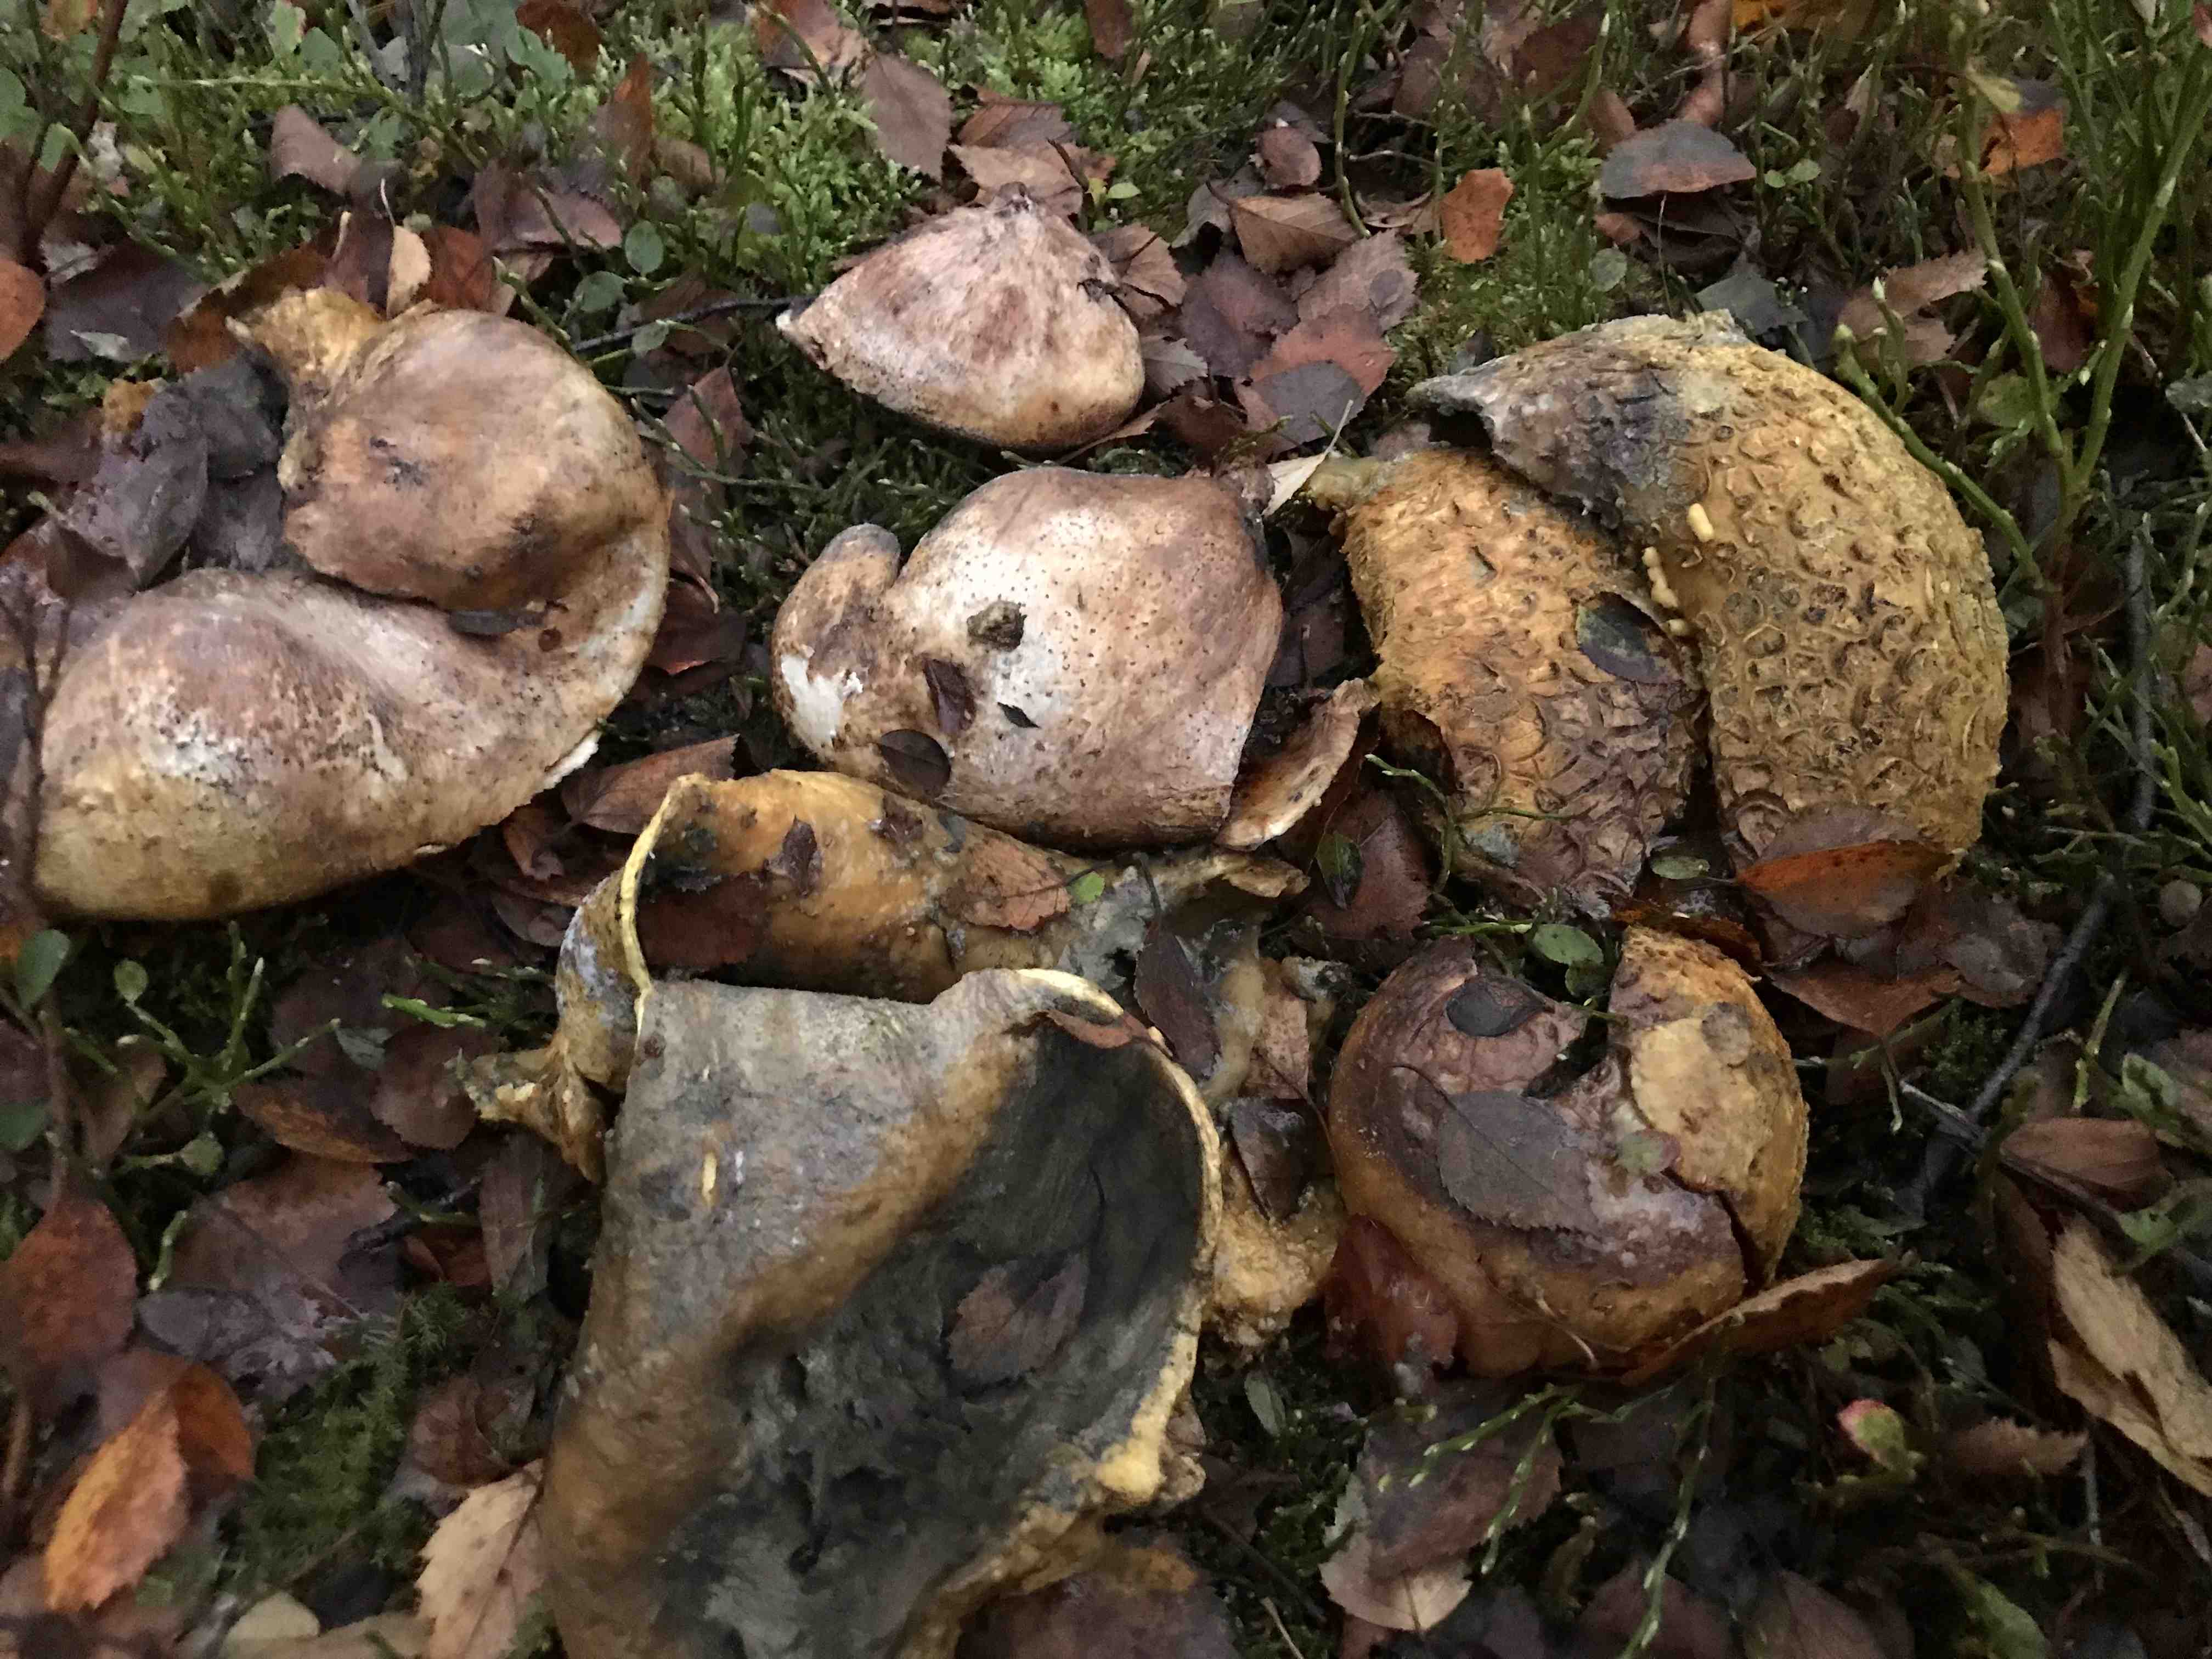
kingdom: Fungi
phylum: Basidiomycota
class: Agaricomycetes
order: Boletales
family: Sclerodermataceae
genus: Scleroderma
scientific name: Scleroderma citrinum
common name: almindelig bruskbold
